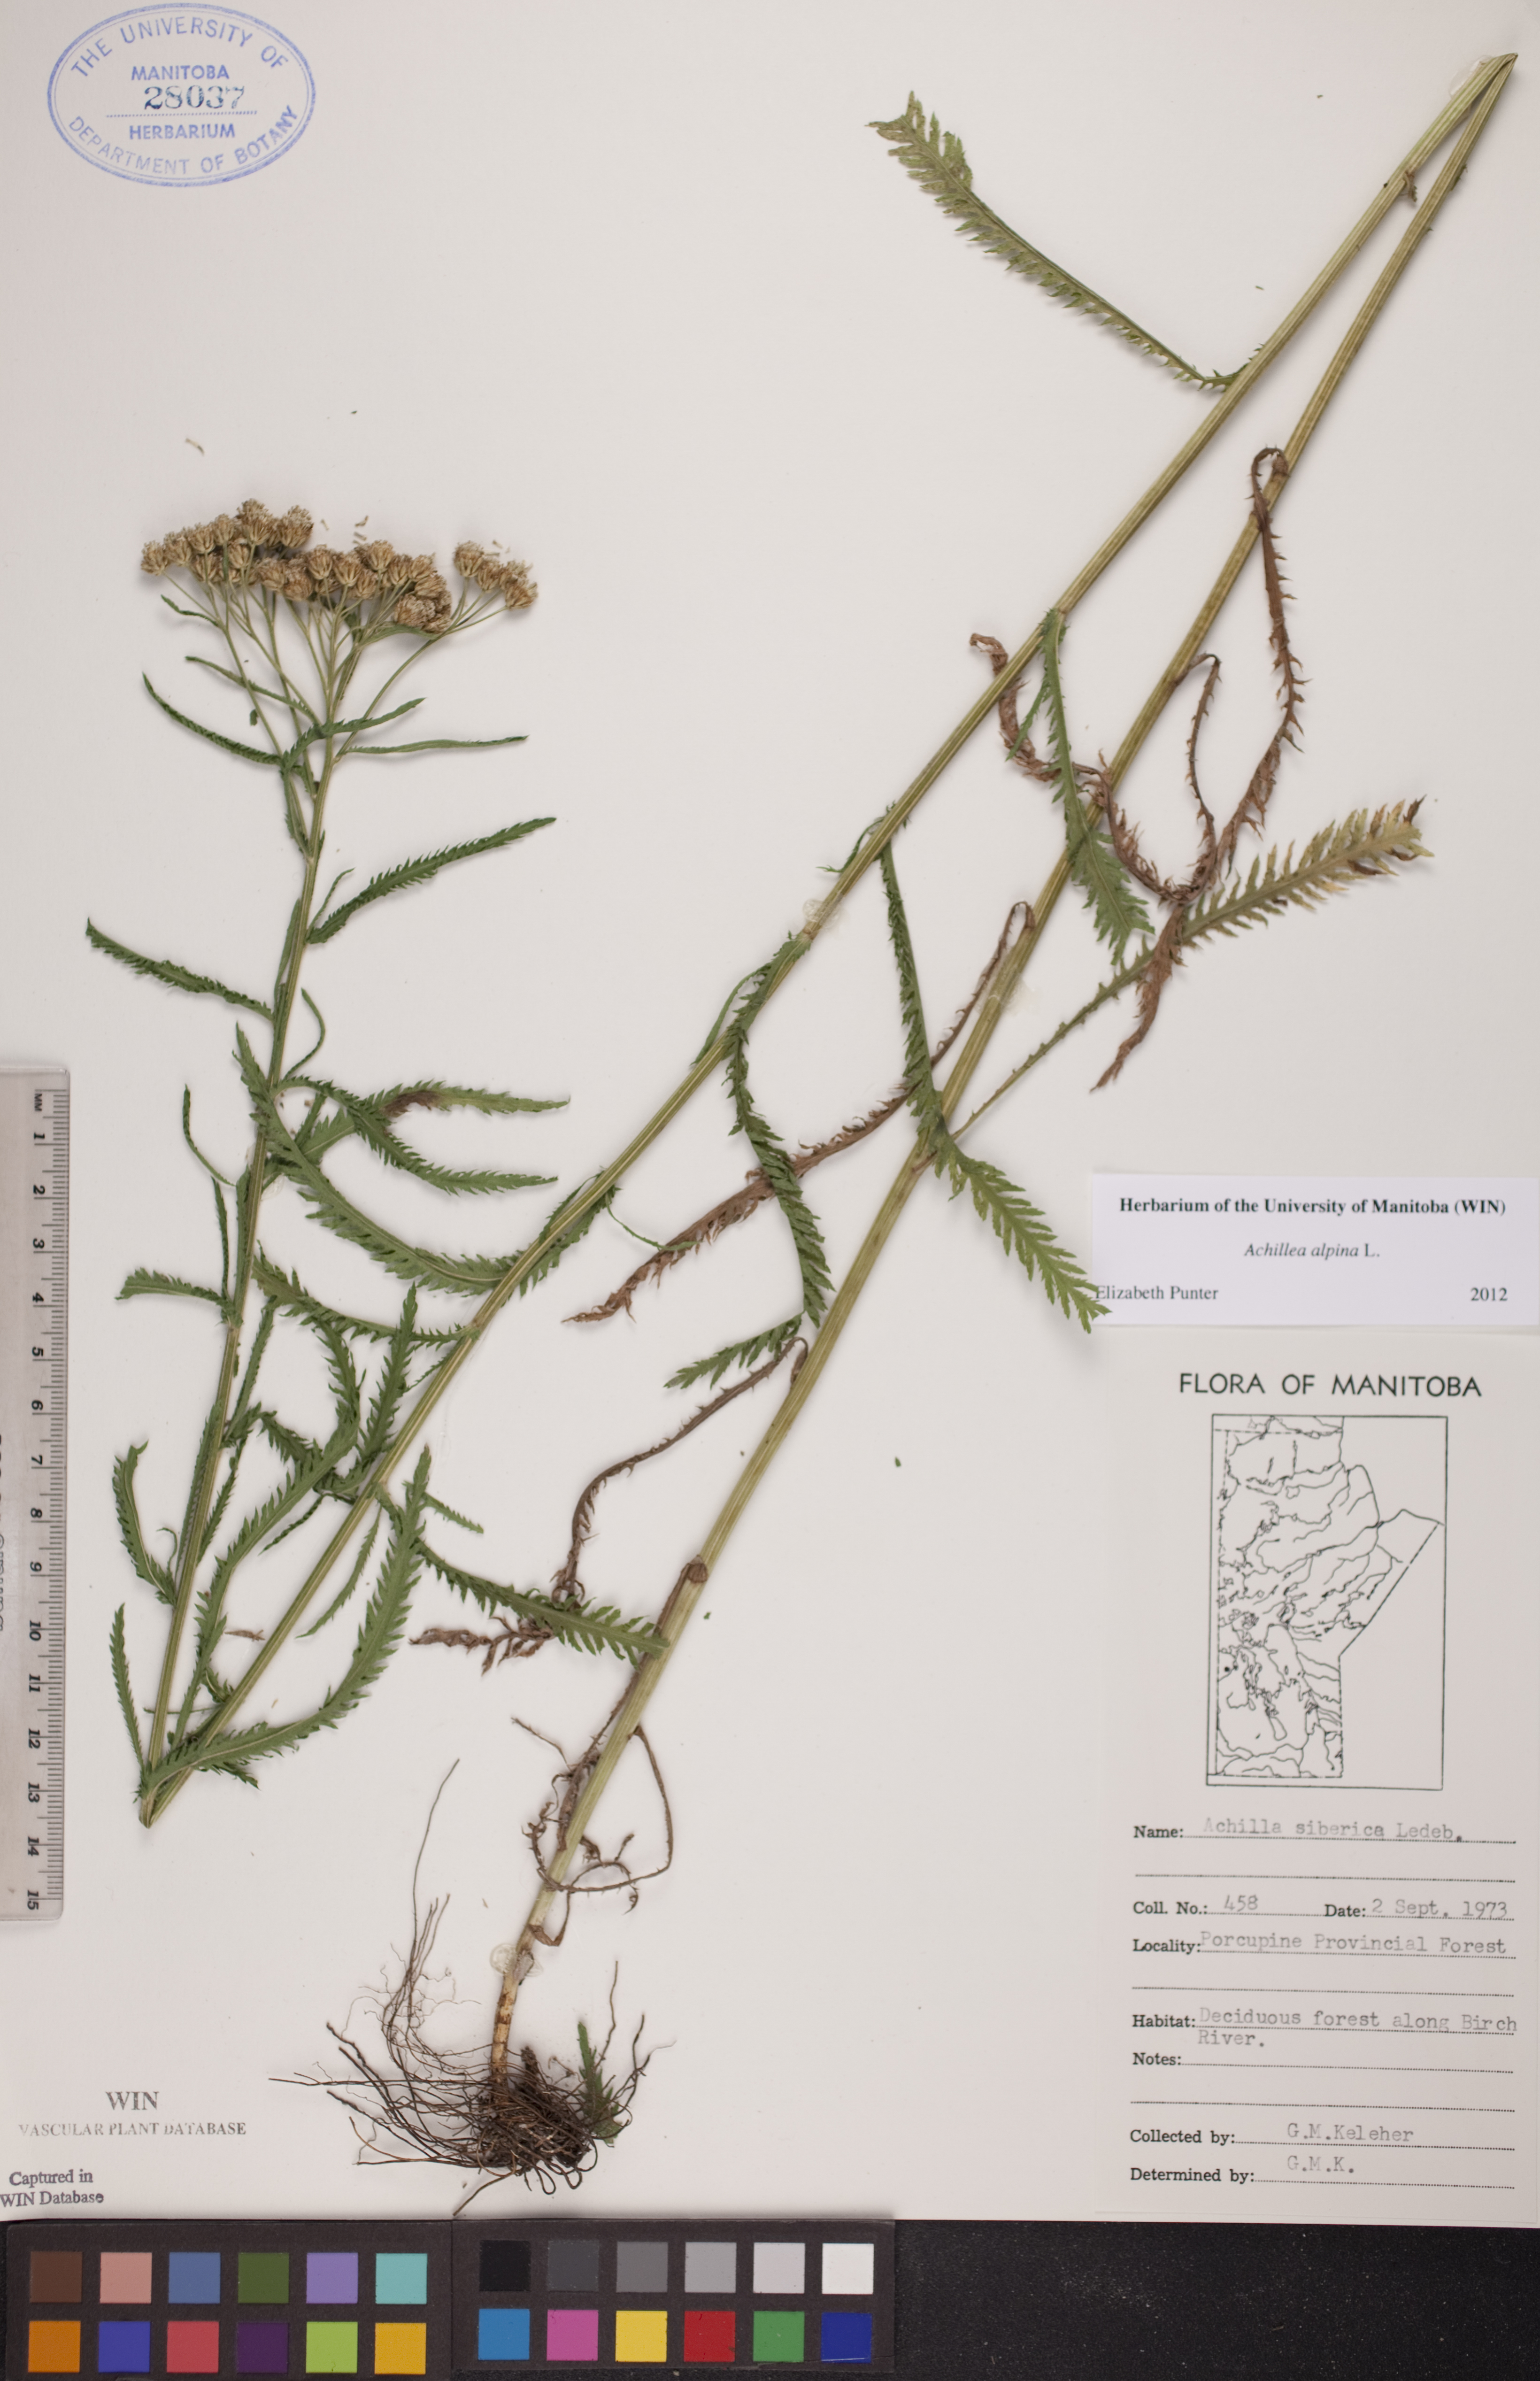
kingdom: Plantae
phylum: Tracheophyta
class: Magnoliopsida
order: Asterales
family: Asteraceae
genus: Achillea
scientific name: Achillea alpina
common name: Siberian yarrow
